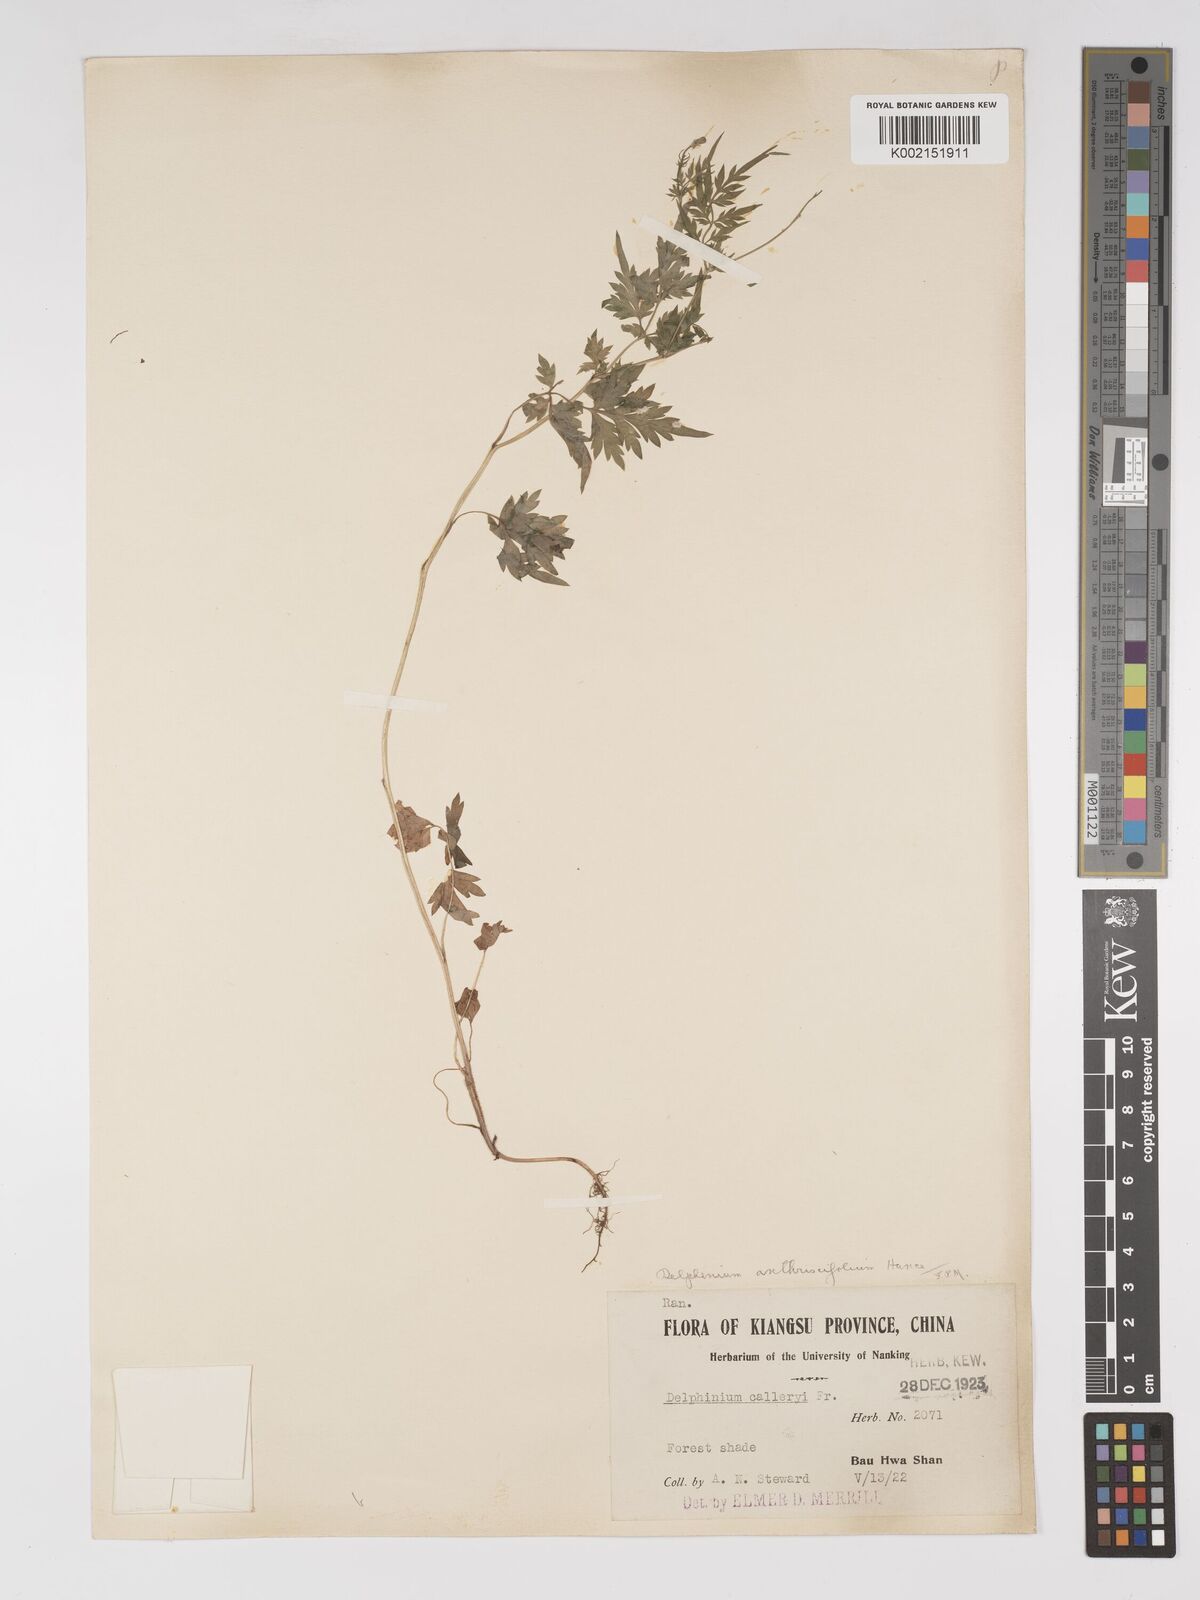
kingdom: Plantae
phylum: Tracheophyta
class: Magnoliopsida
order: Ranunculales
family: Ranunculaceae
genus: Delphinium
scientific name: Delphinium anthriscifolium
